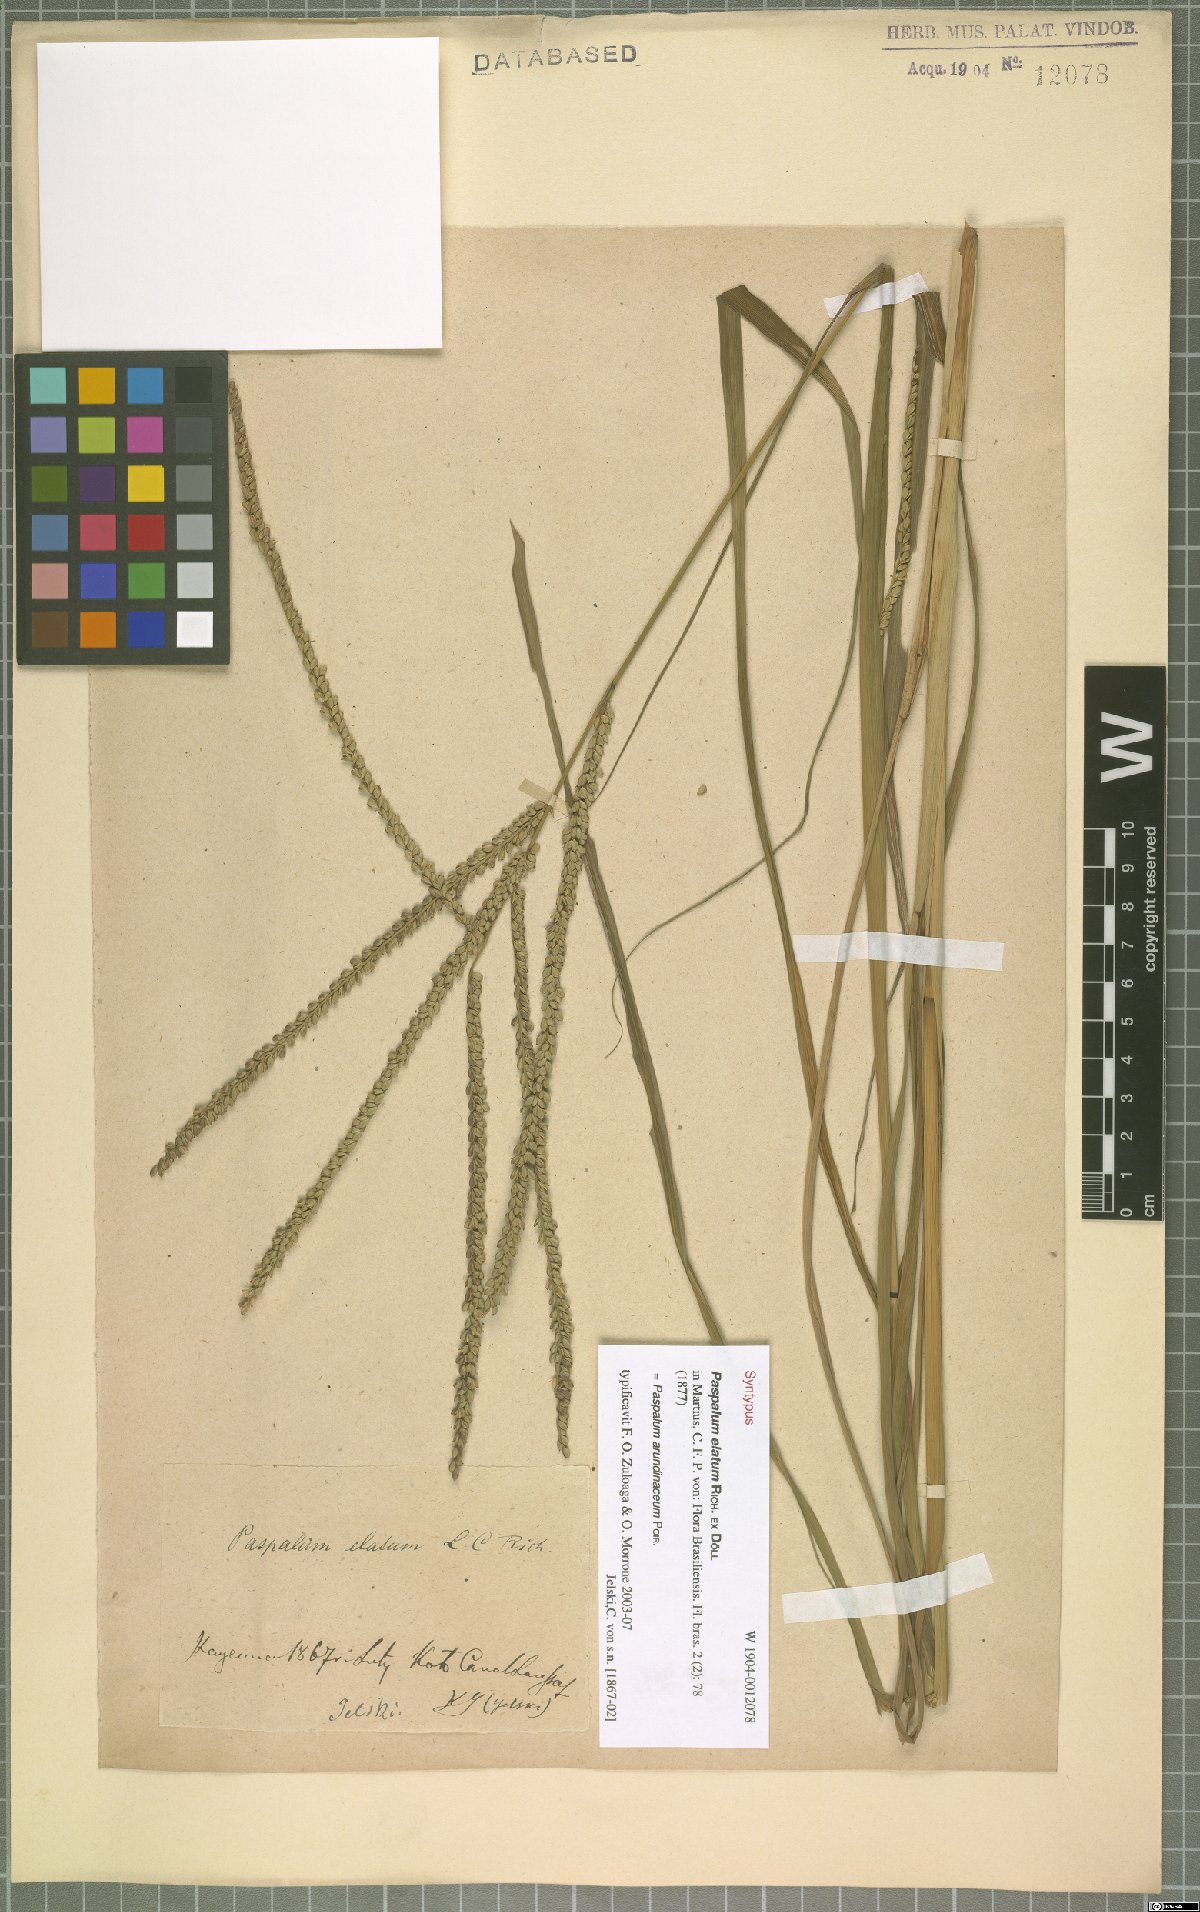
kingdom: Plantae
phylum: Tracheophyta
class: Liliopsida
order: Poales
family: Poaceae
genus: Paspalum
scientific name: Paspalum arundinaceum
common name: Thick ditch crowngrass
